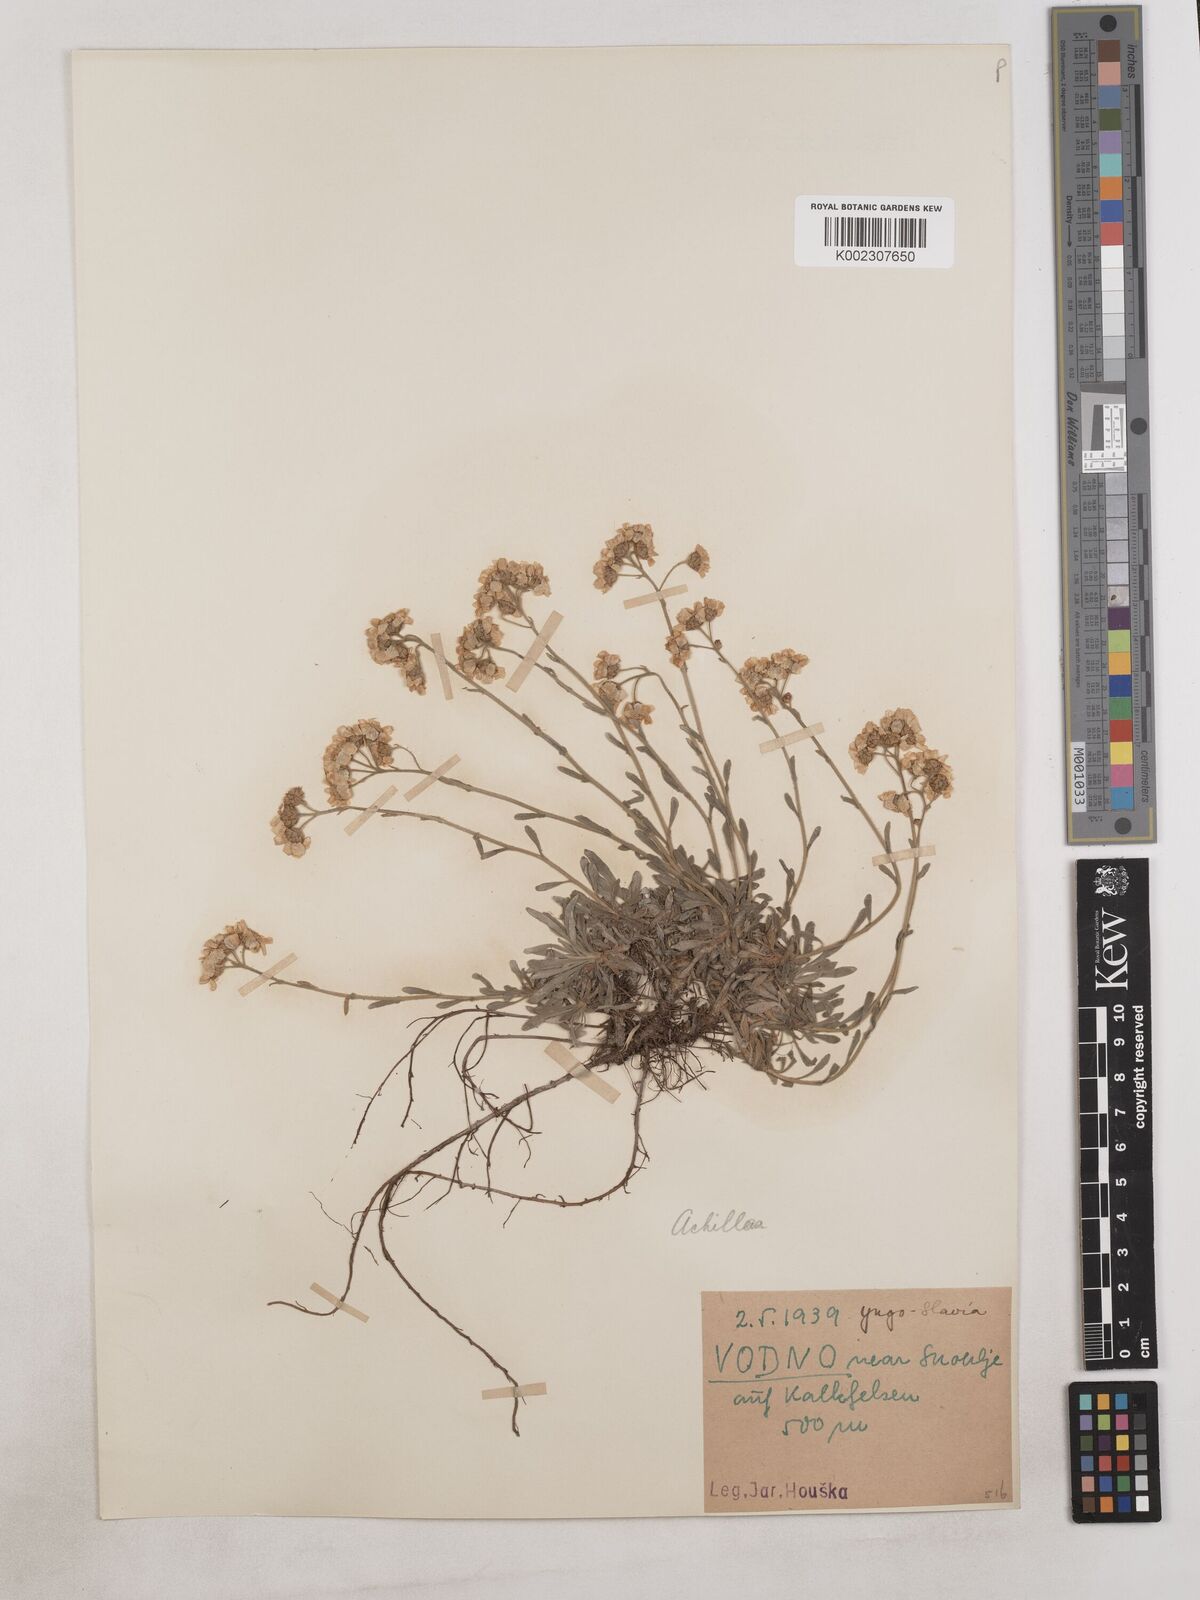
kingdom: Plantae
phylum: Tracheophyta
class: Magnoliopsida
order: Asterales
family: Asteraceae
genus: Achillea
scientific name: Achillea
